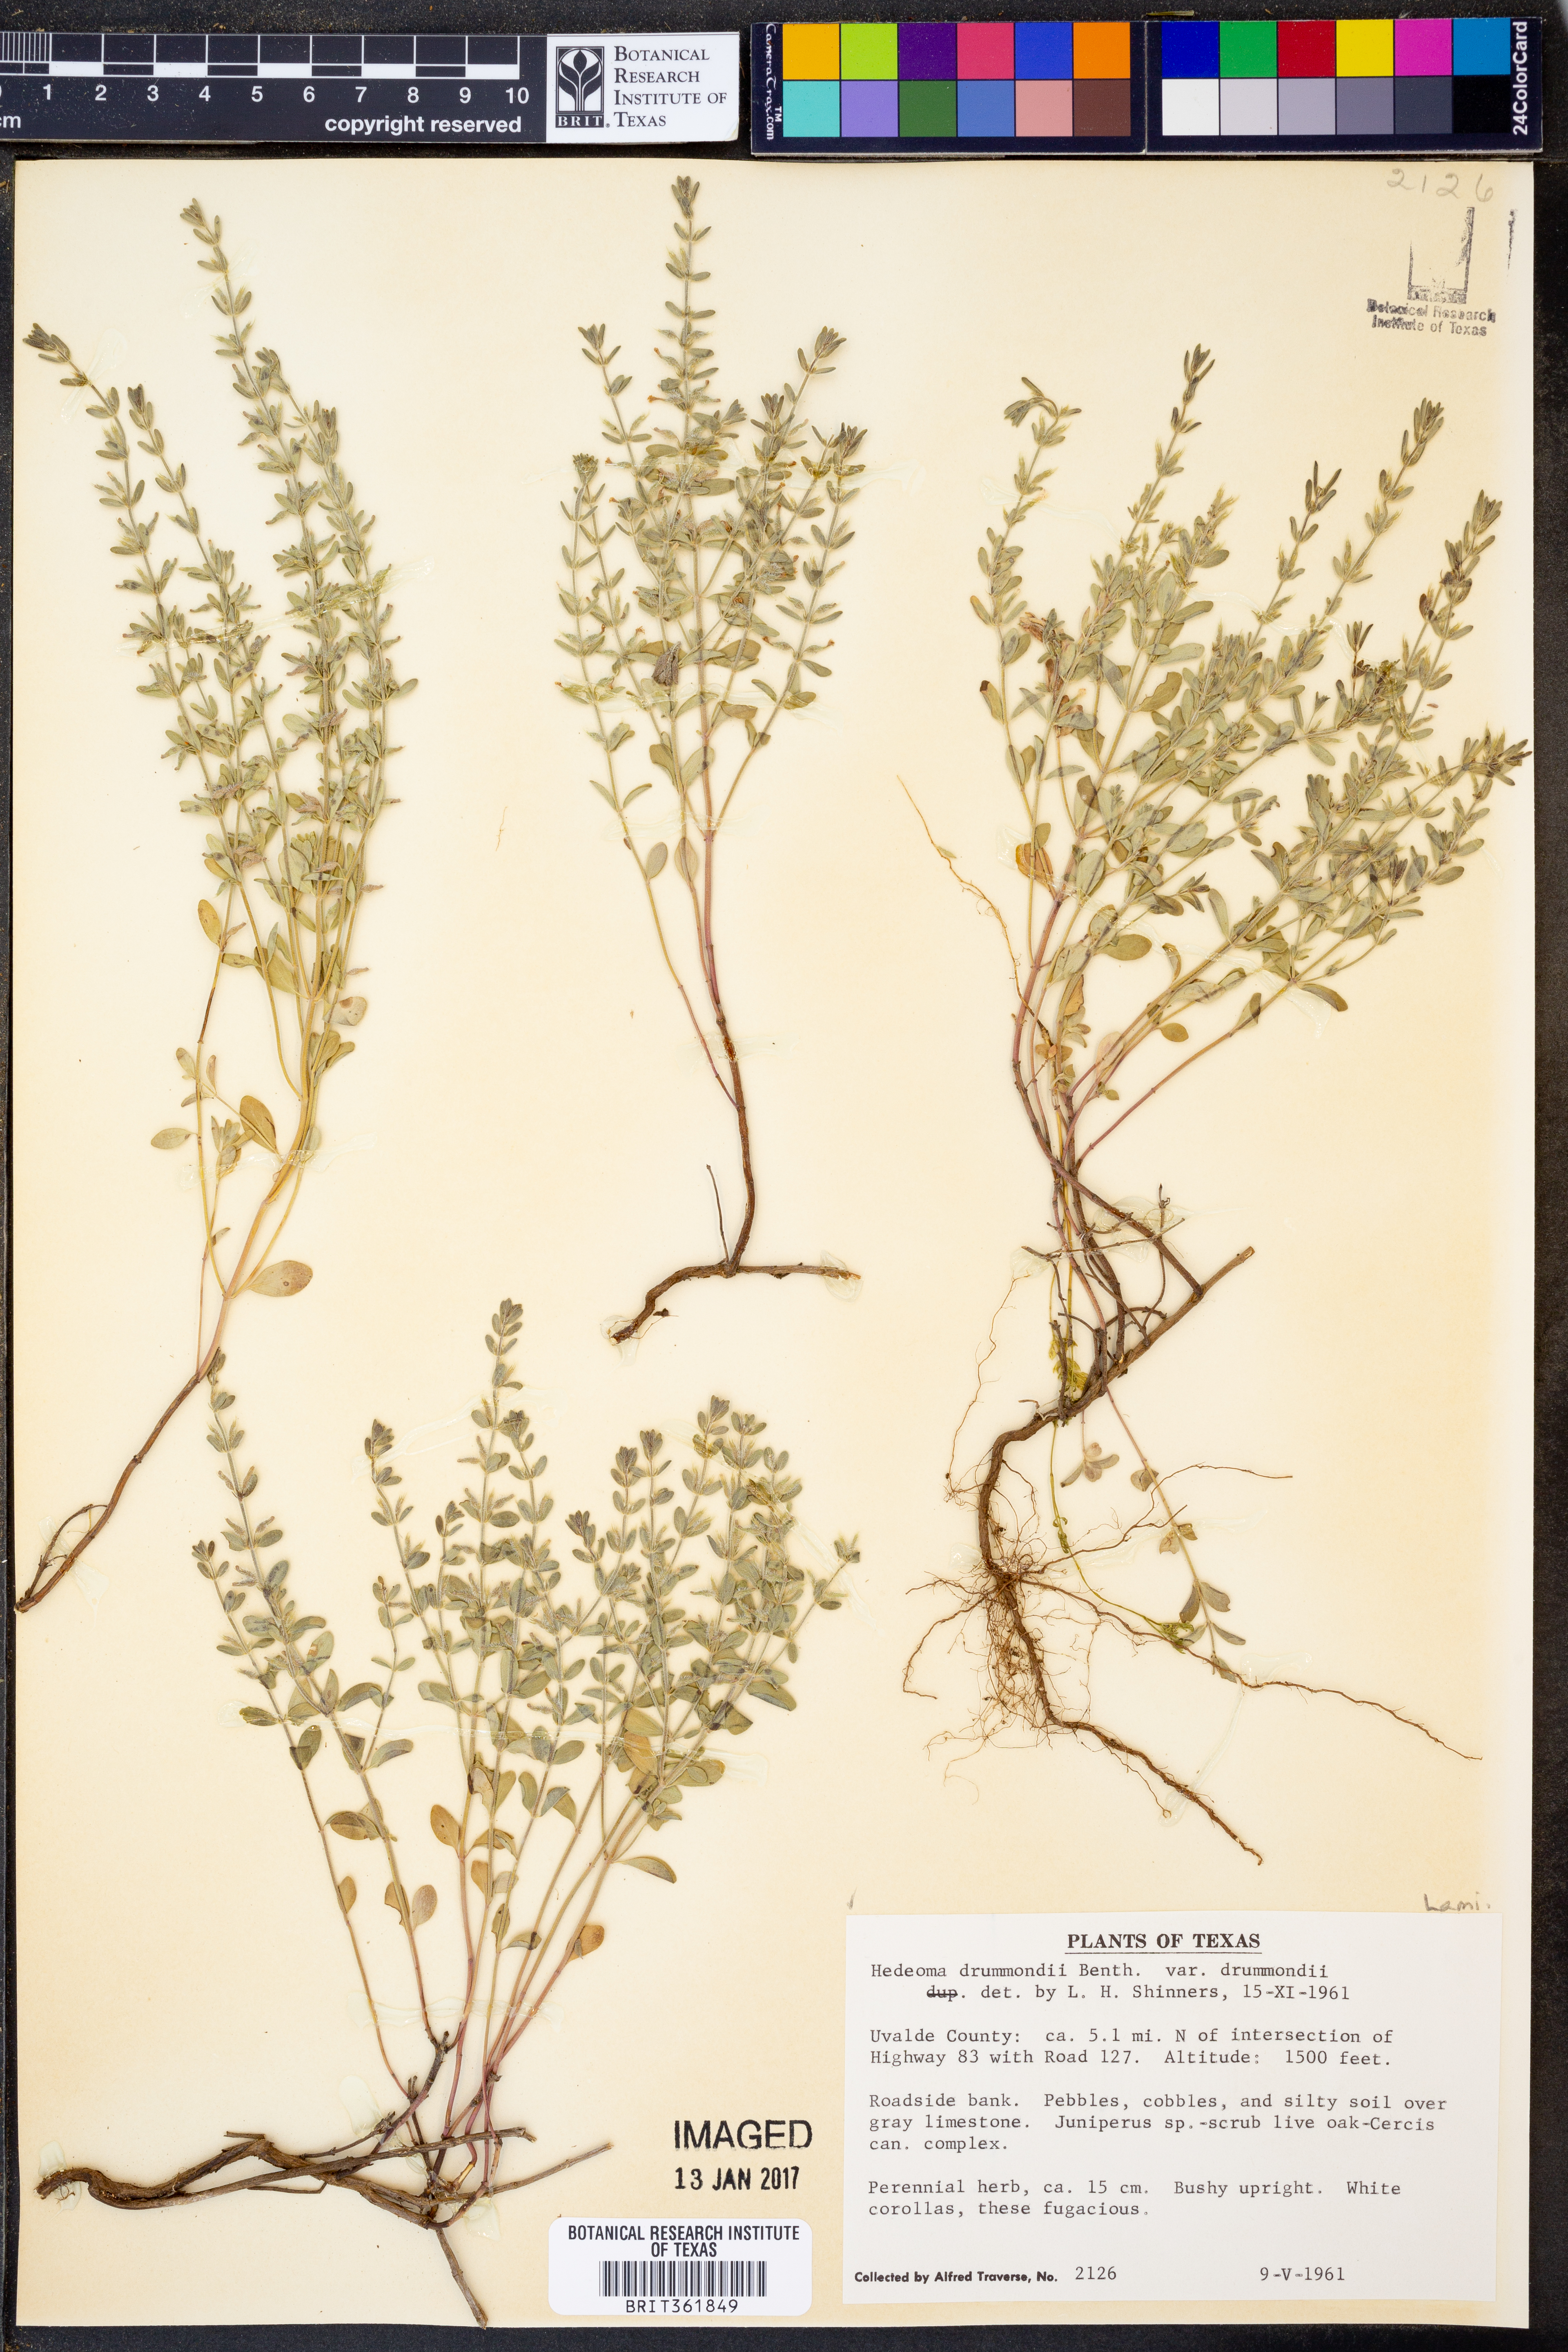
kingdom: Plantae
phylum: Tracheophyta
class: Magnoliopsida
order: Lamiales
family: Lamiaceae
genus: Hedeoma
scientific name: Hedeoma drummondii
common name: New mexico pennyroyal
